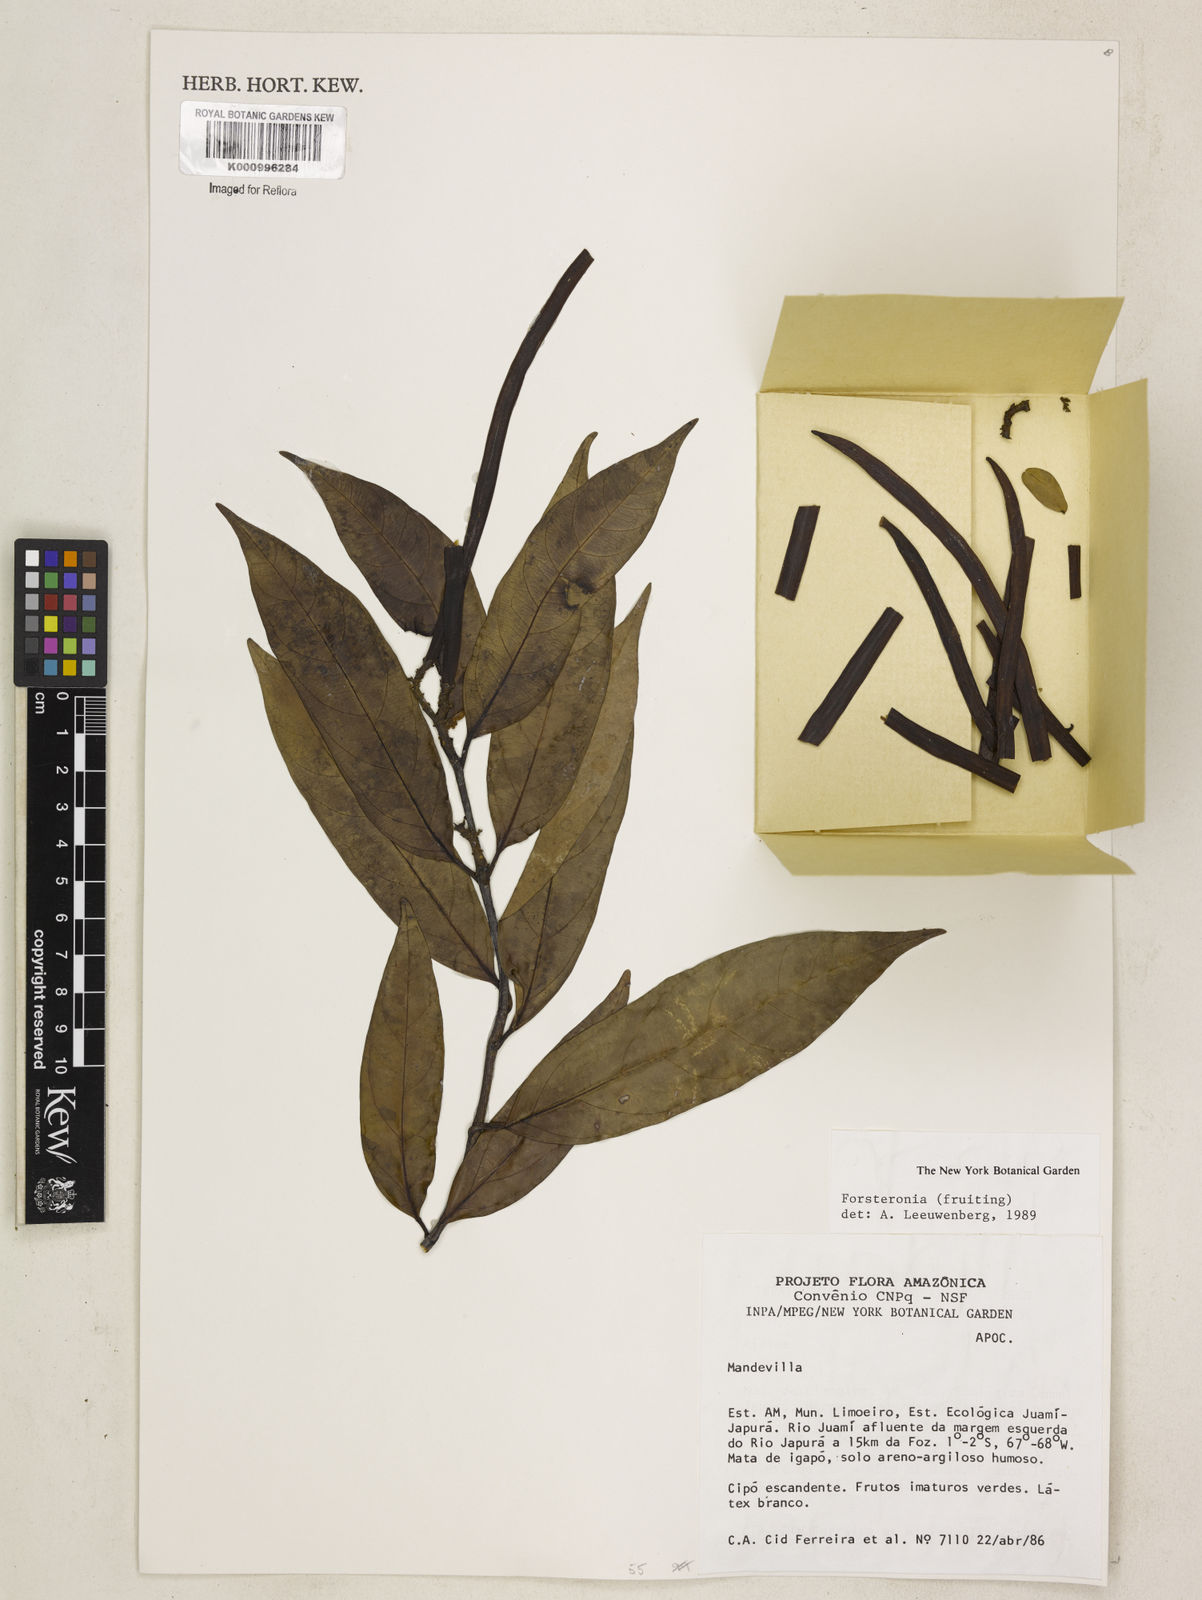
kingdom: Plantae
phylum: Tracheophyta
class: Magnoliopsida
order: Gentianales
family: Apocynaceae
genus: Forsteronia
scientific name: Forsteronia
